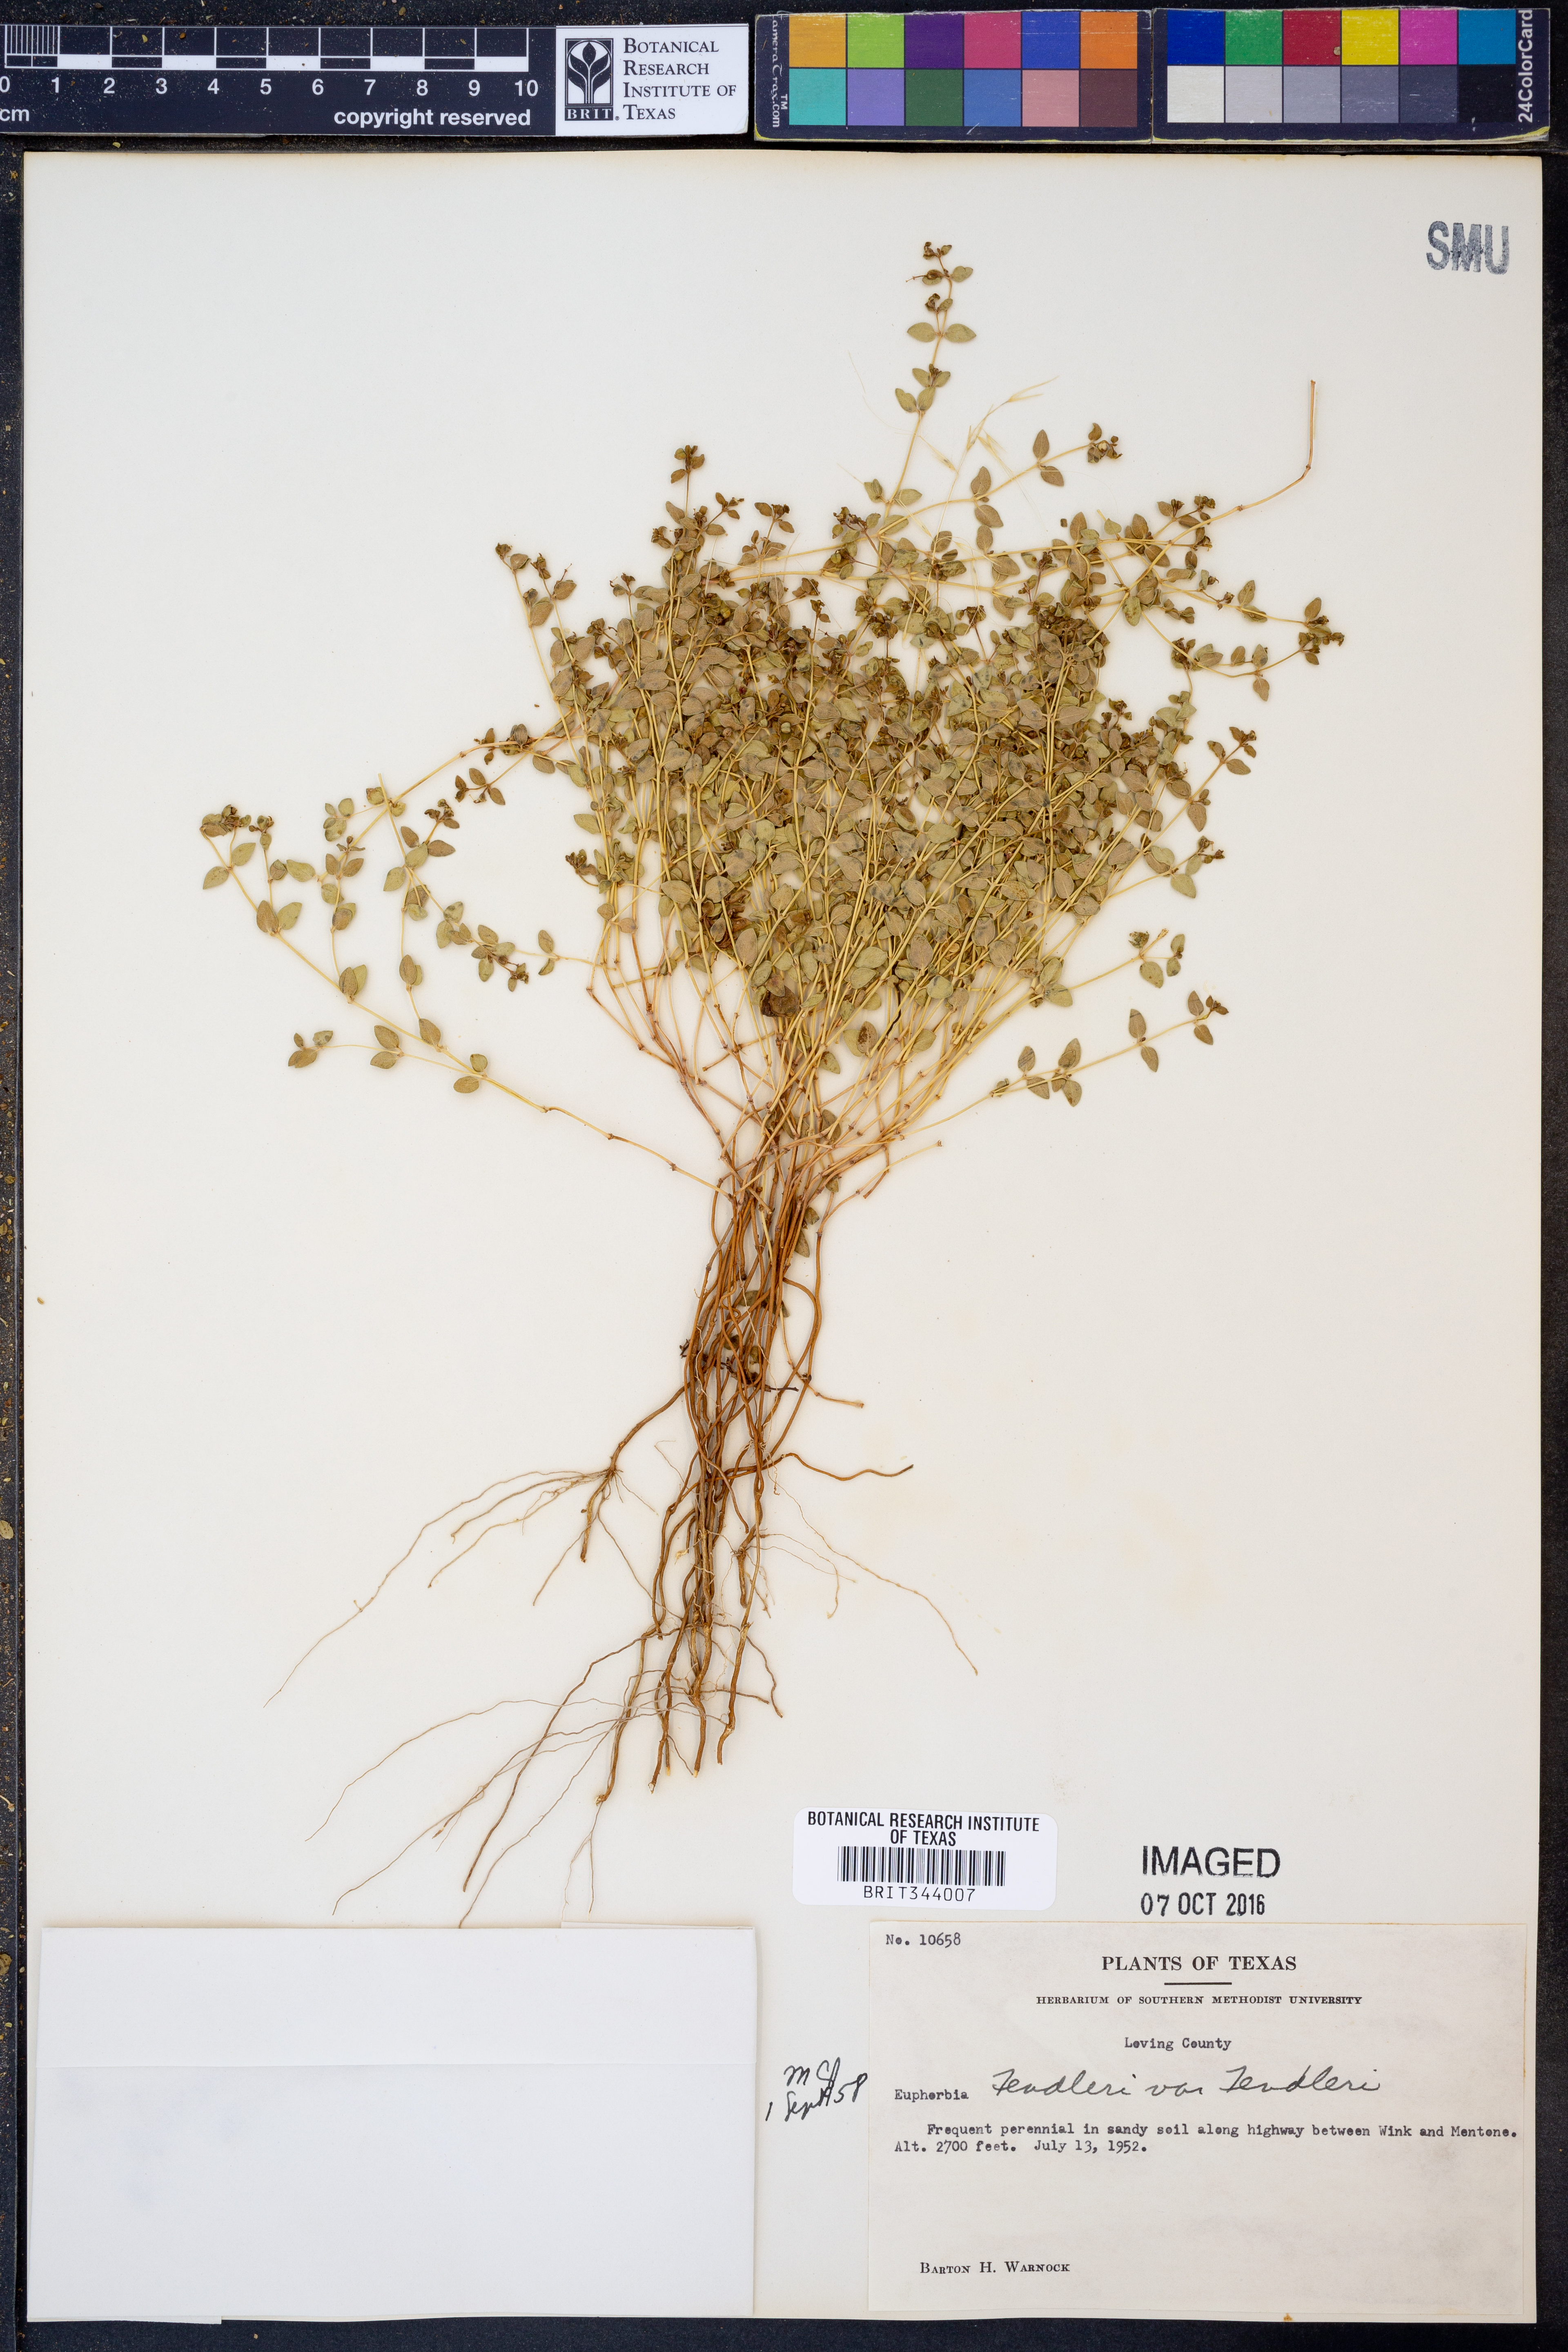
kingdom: Plantae
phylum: Tracheophyta
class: Magnoliopsida
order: Malpighiales
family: Euphorbiaceae
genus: Euphorbia
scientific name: Euphorbia fendleri
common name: Fendler's euphorbia
